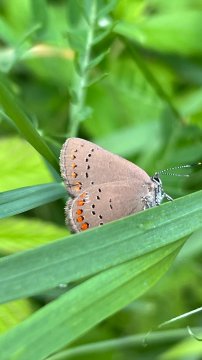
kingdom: Animalia
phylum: Arthropoda
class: Insecta
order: Lepidoptera
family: Lycaenidae
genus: Harkenclenus
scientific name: Harkenclenus titus
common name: Coral Hairstreak
